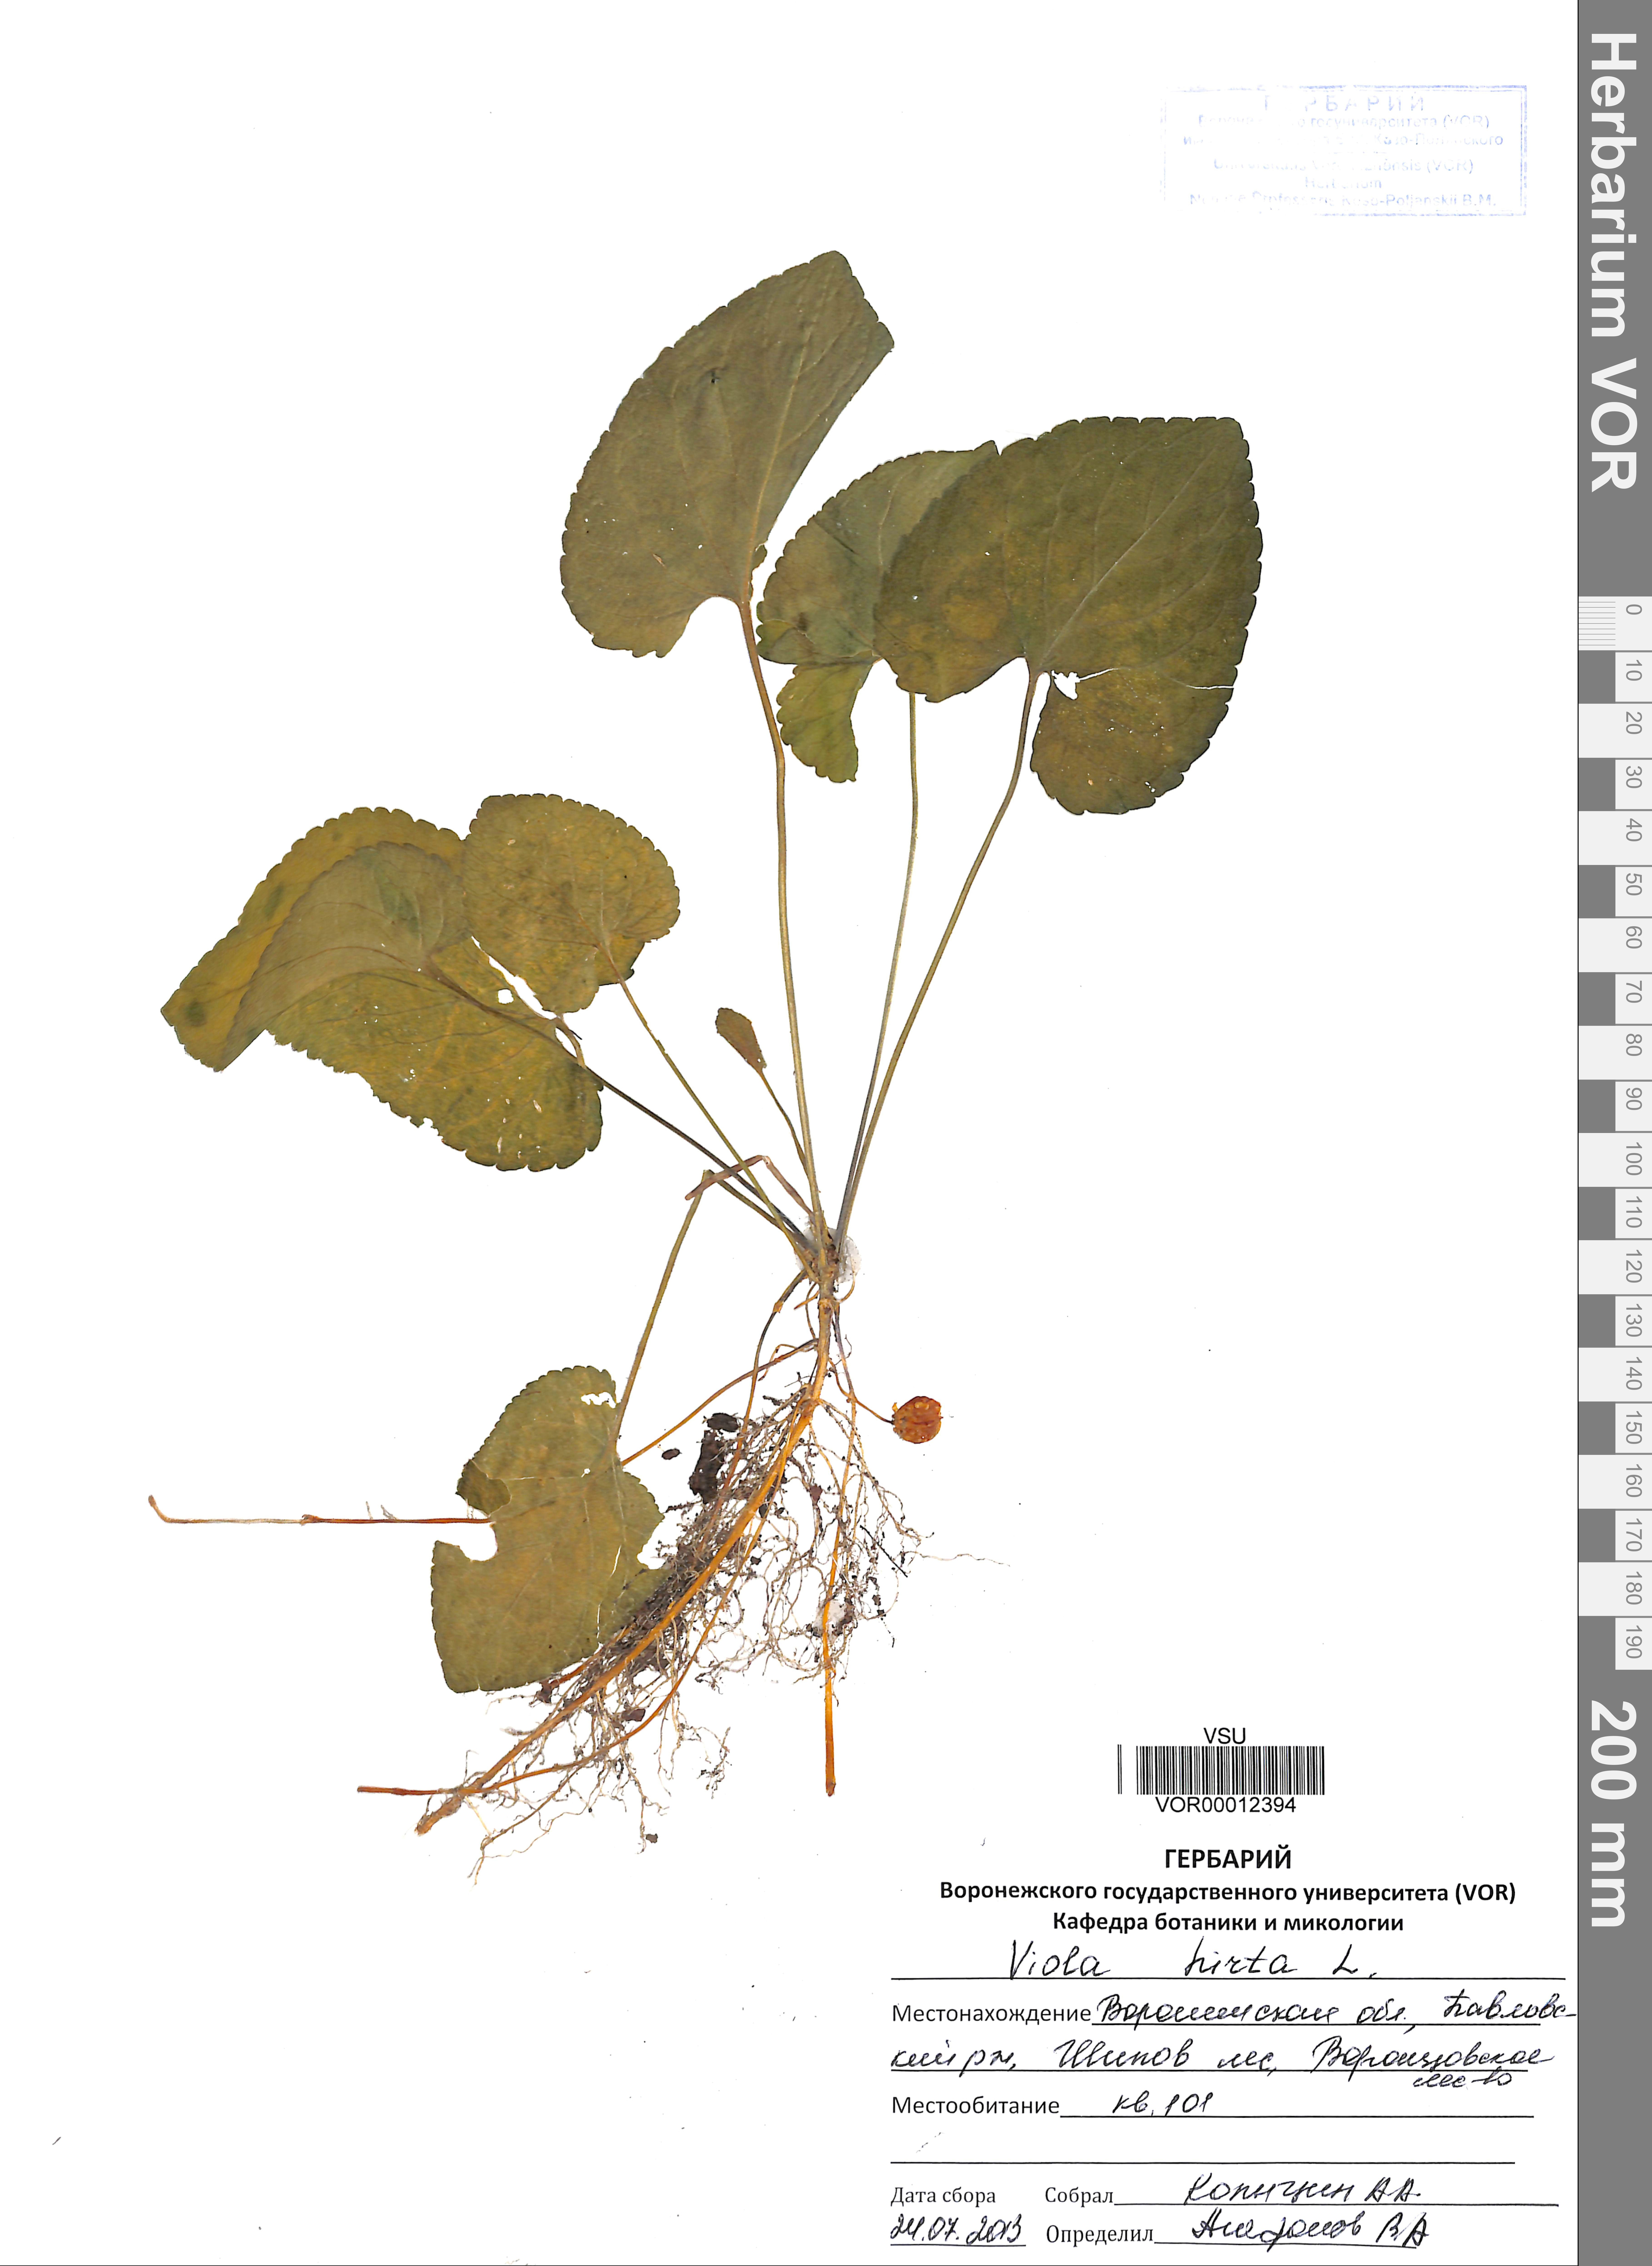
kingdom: Plantae
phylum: Tracheophyta
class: Magnoliopsida
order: Malpighiales
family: Violaceae
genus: Viola
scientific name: Viola hirta
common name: Hairy violet
